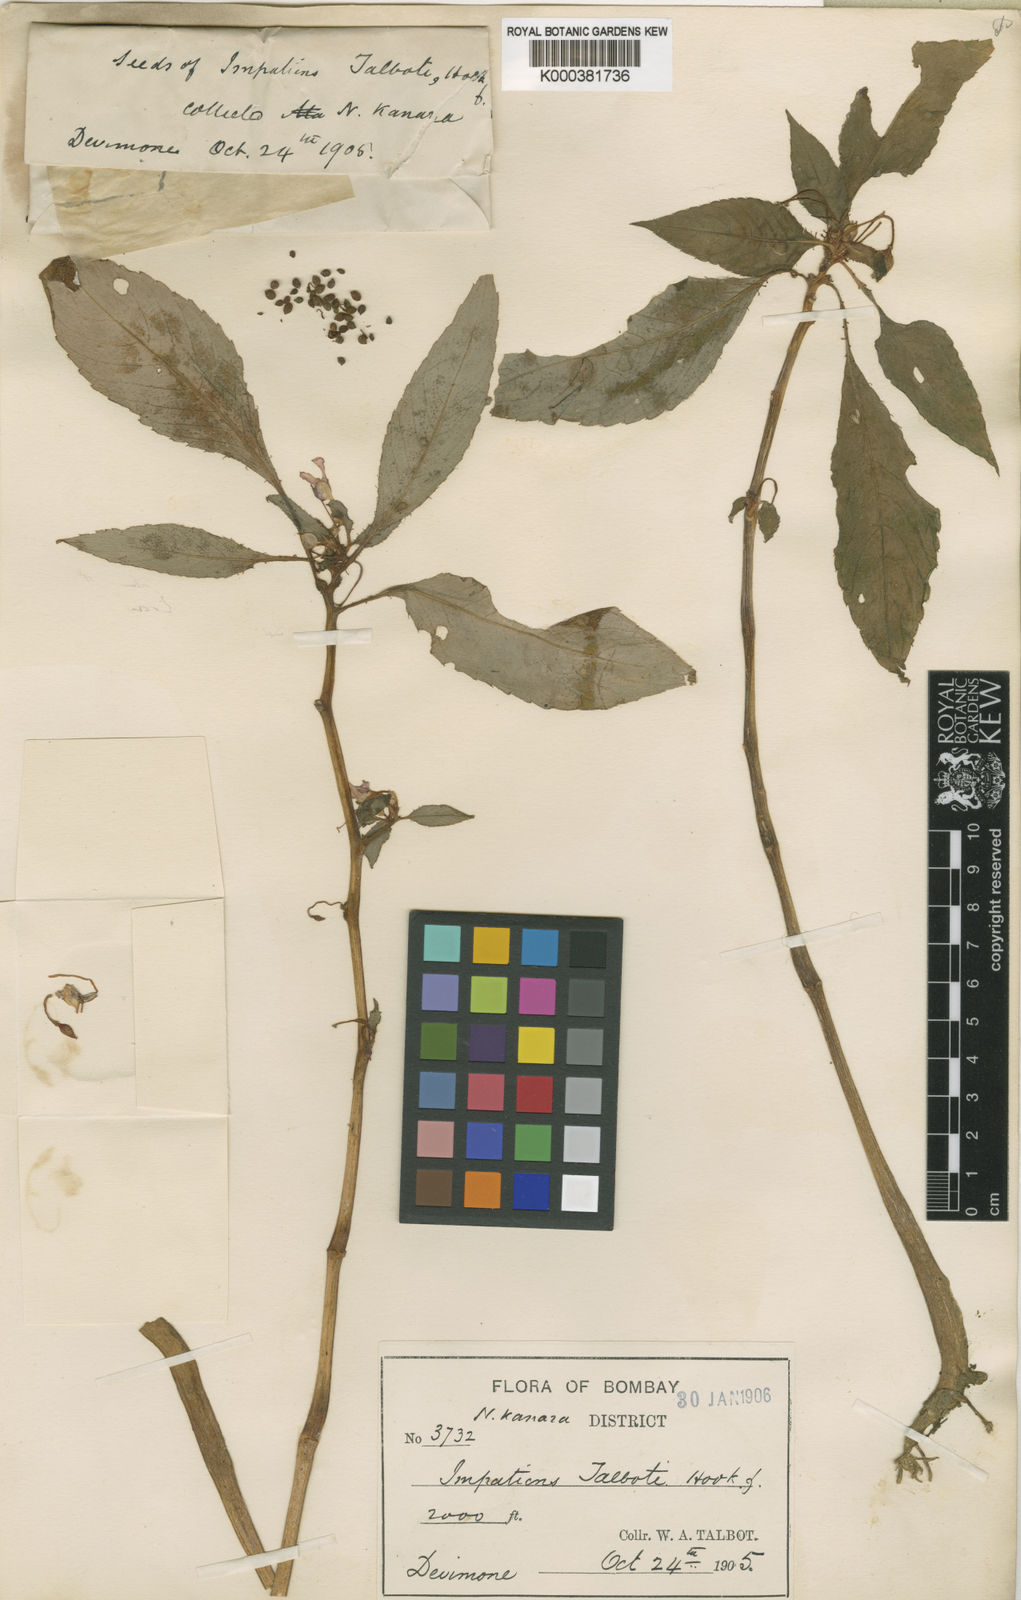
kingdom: Plantae
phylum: Tracheophyta
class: Magnoliopsida
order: Ericales
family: Balsaminaceae
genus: Impatiens
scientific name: Impatiens talbotii
